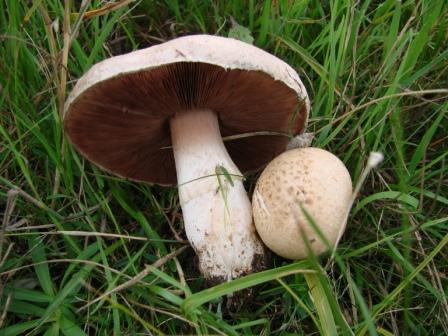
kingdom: Fungi
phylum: Basidiomycota
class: Agaricomycetes
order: Agaricales
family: Agaricaceae
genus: Agaricus
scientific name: Agaricus campestris
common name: mark-champignon
